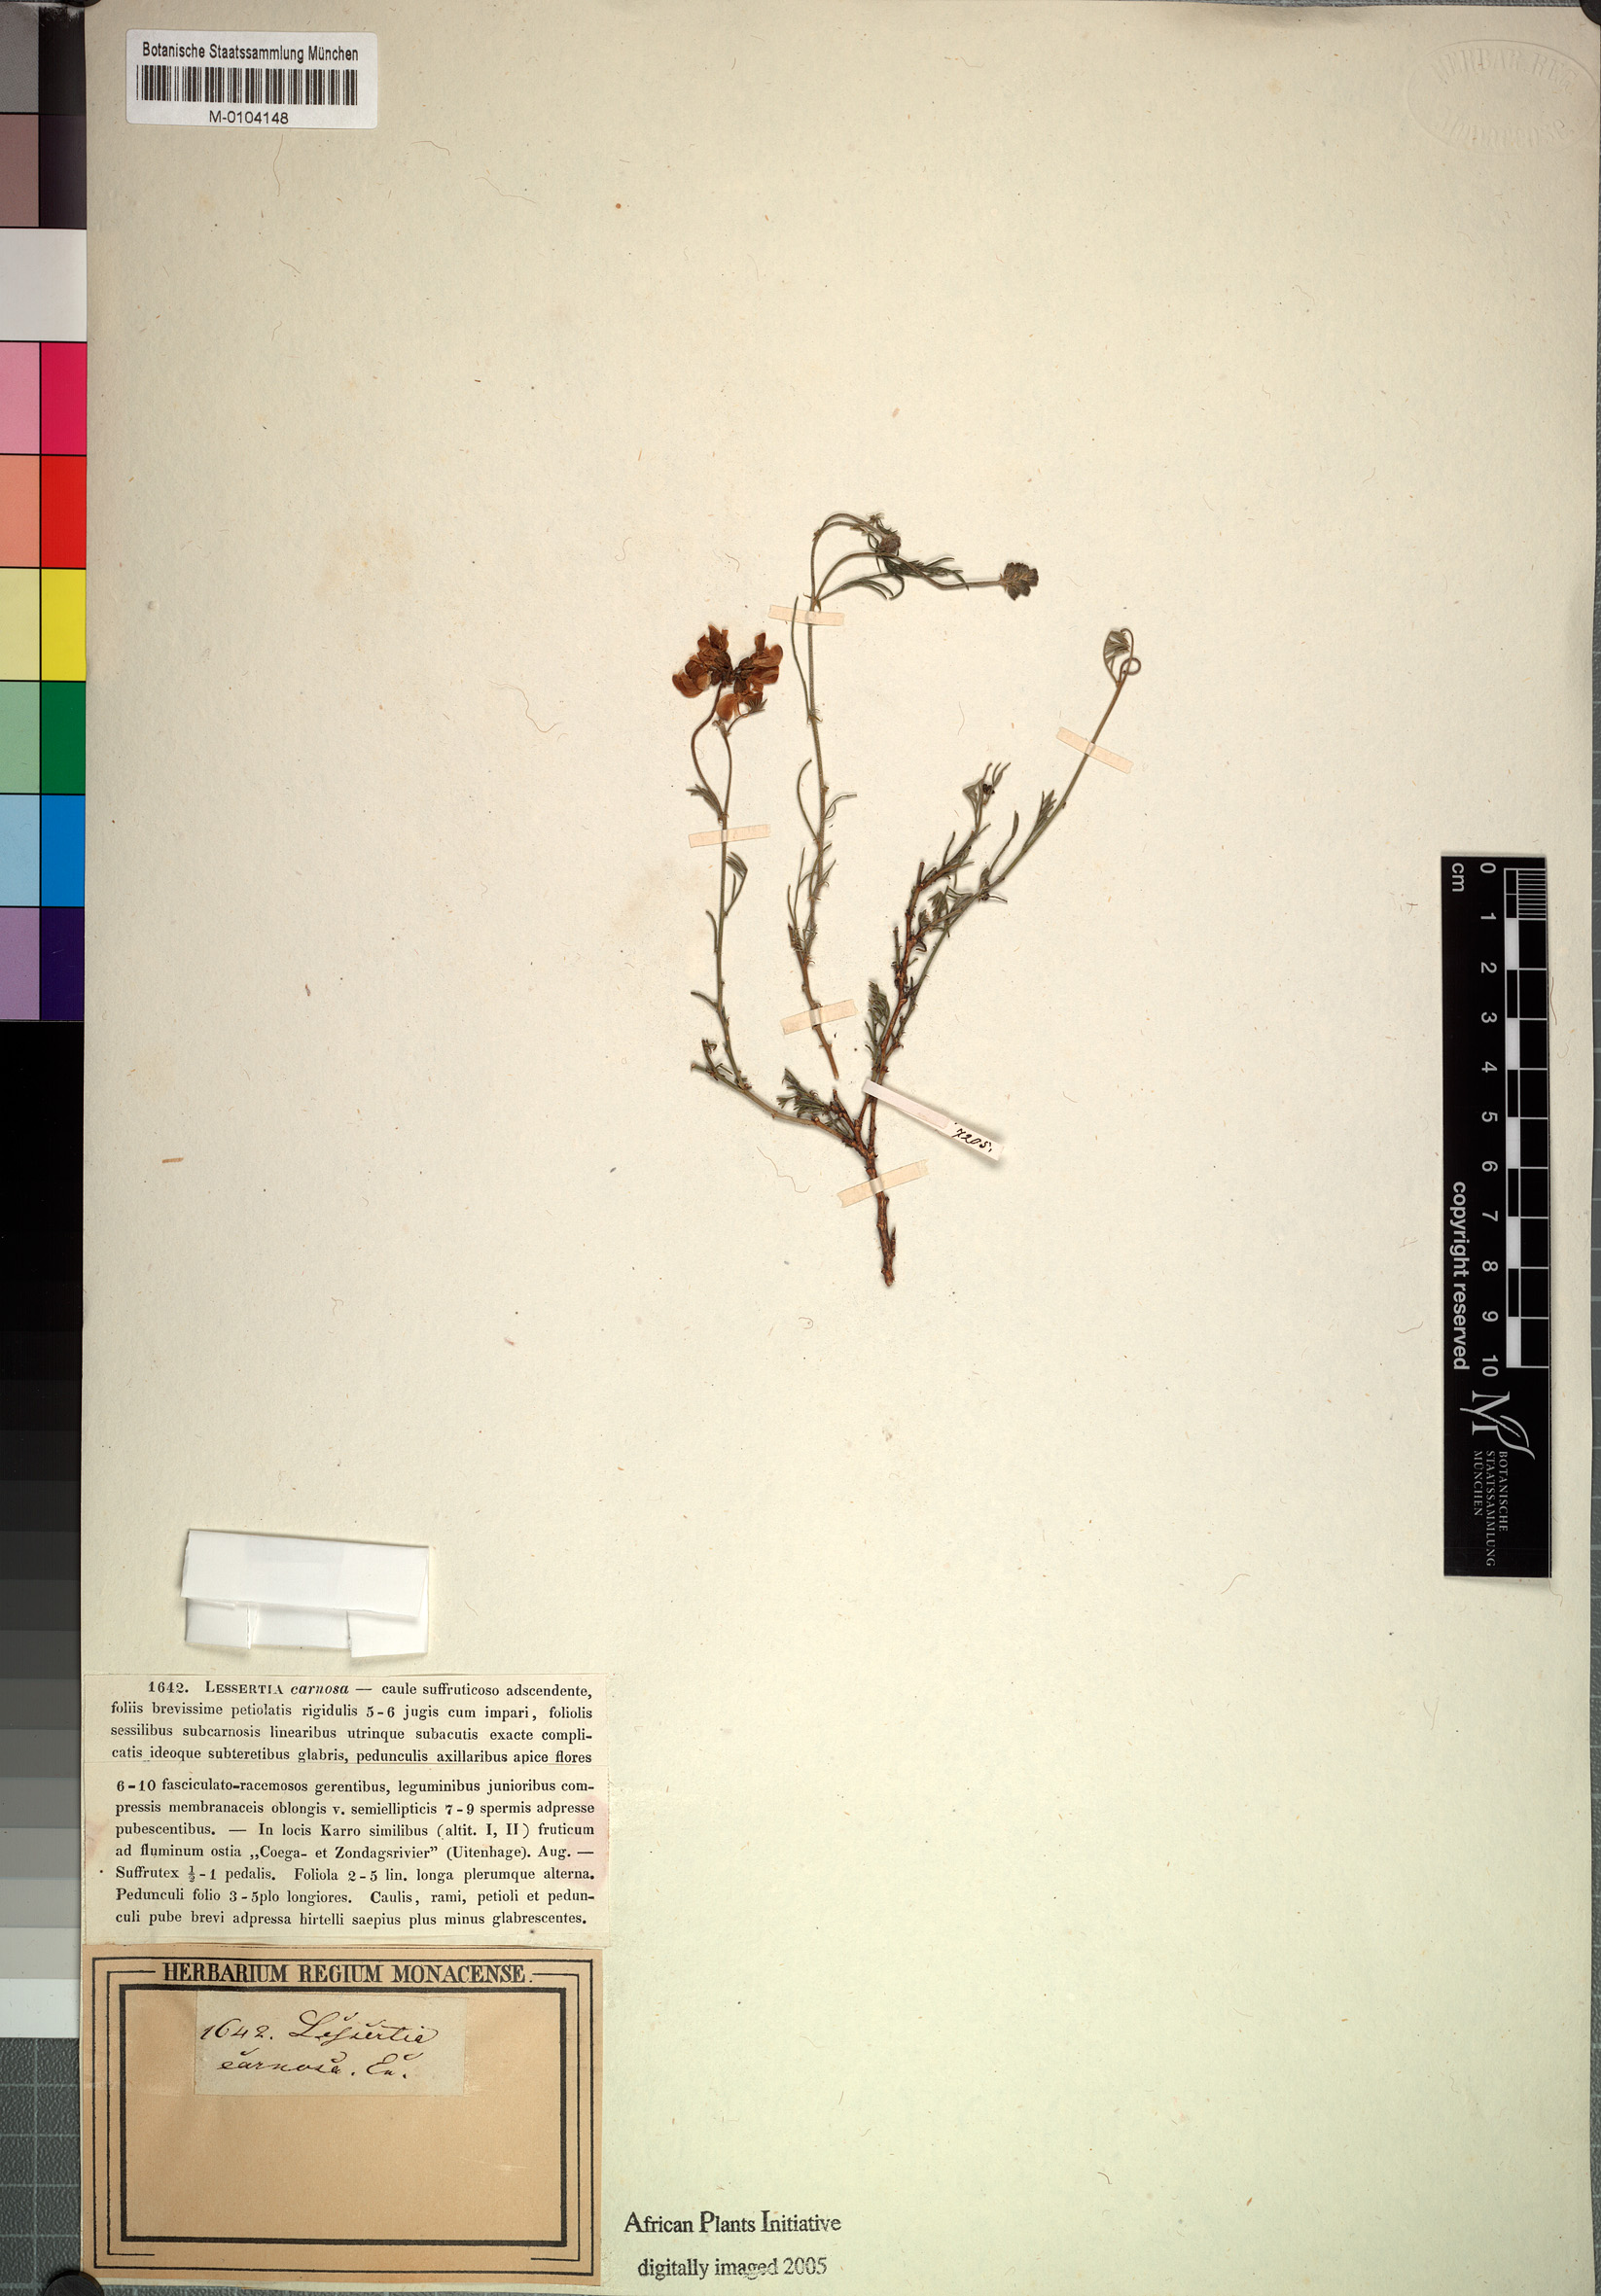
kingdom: Plantae
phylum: Tracheophyta
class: Magnoliopsida
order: Fabales
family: Fabaceae
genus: Lessertia
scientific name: Lessertia carnosa
